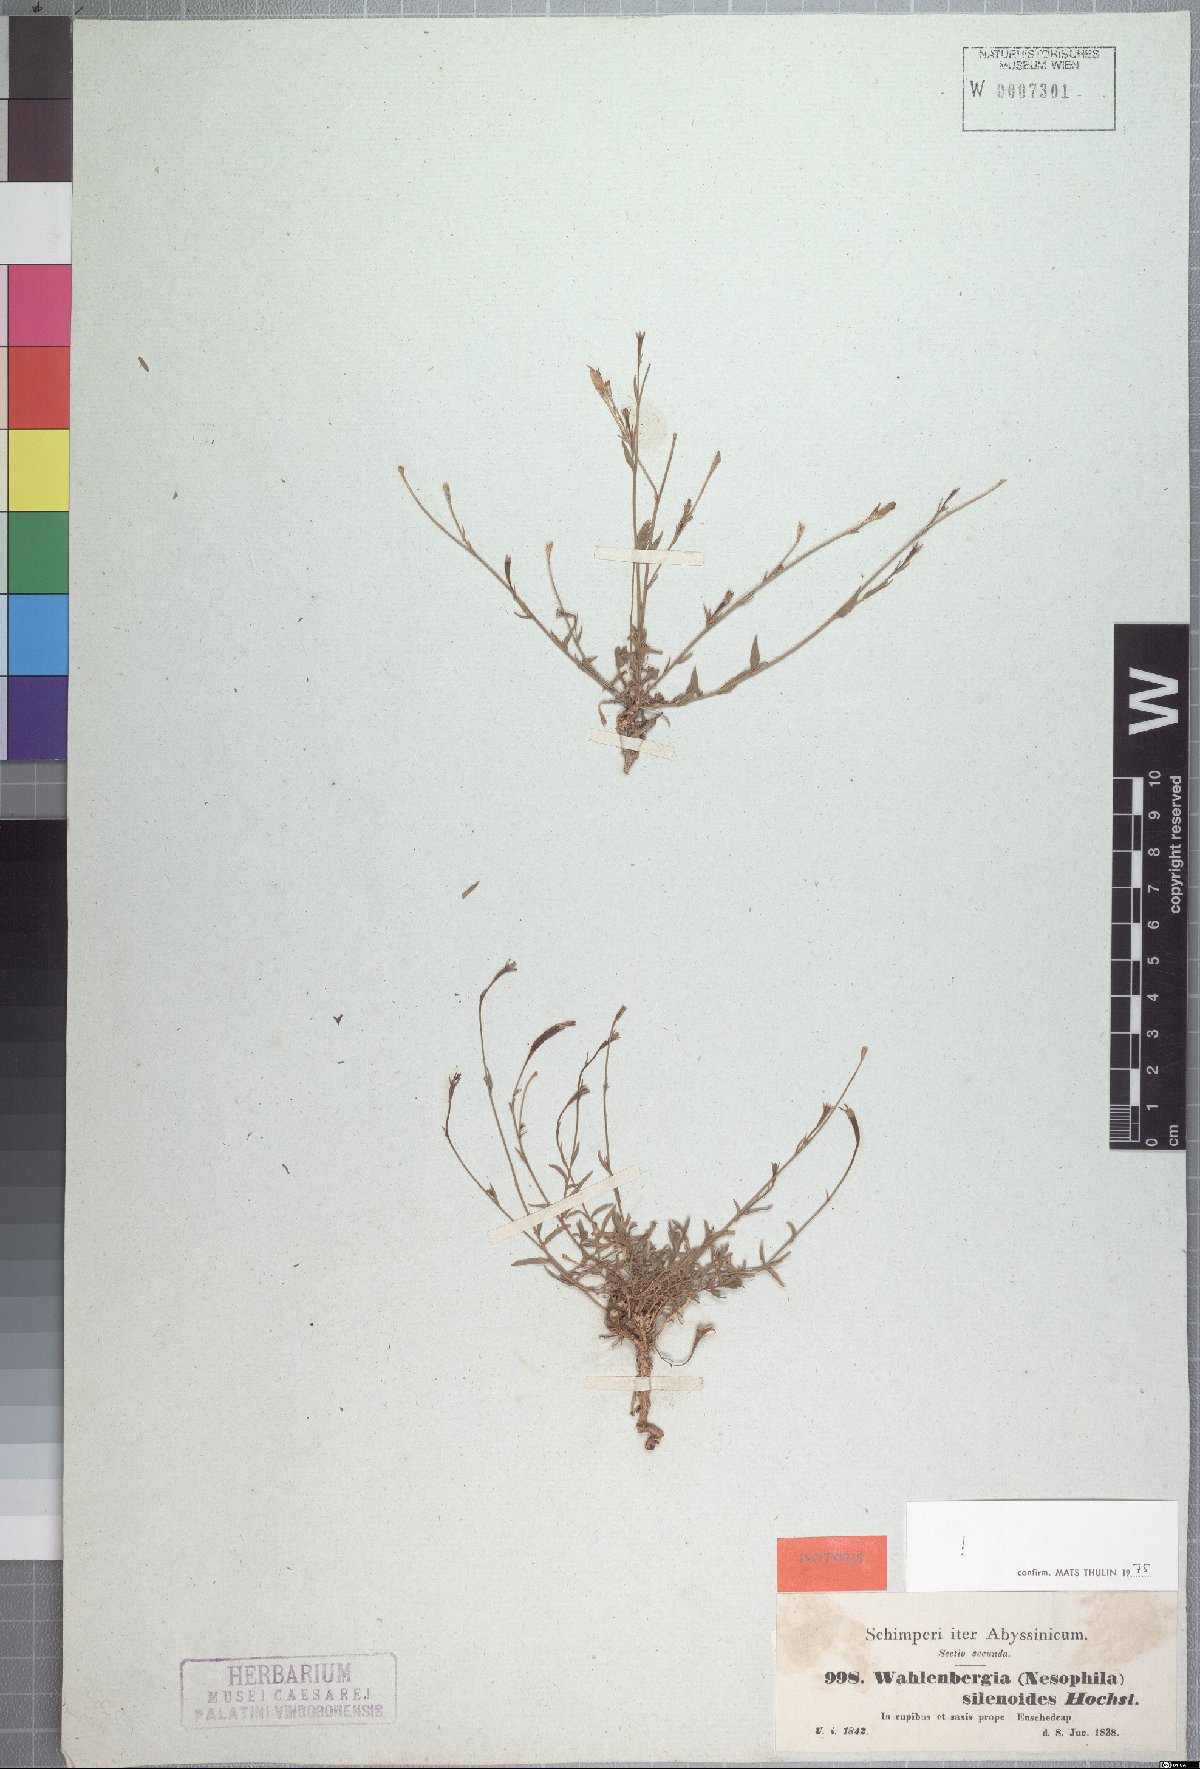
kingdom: Plantae
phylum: Tracheophyta
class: Magnoliopsida
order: Asterales
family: Campanulaceae
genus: Wahlenbergia
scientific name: Wahlenbergia silenoides
